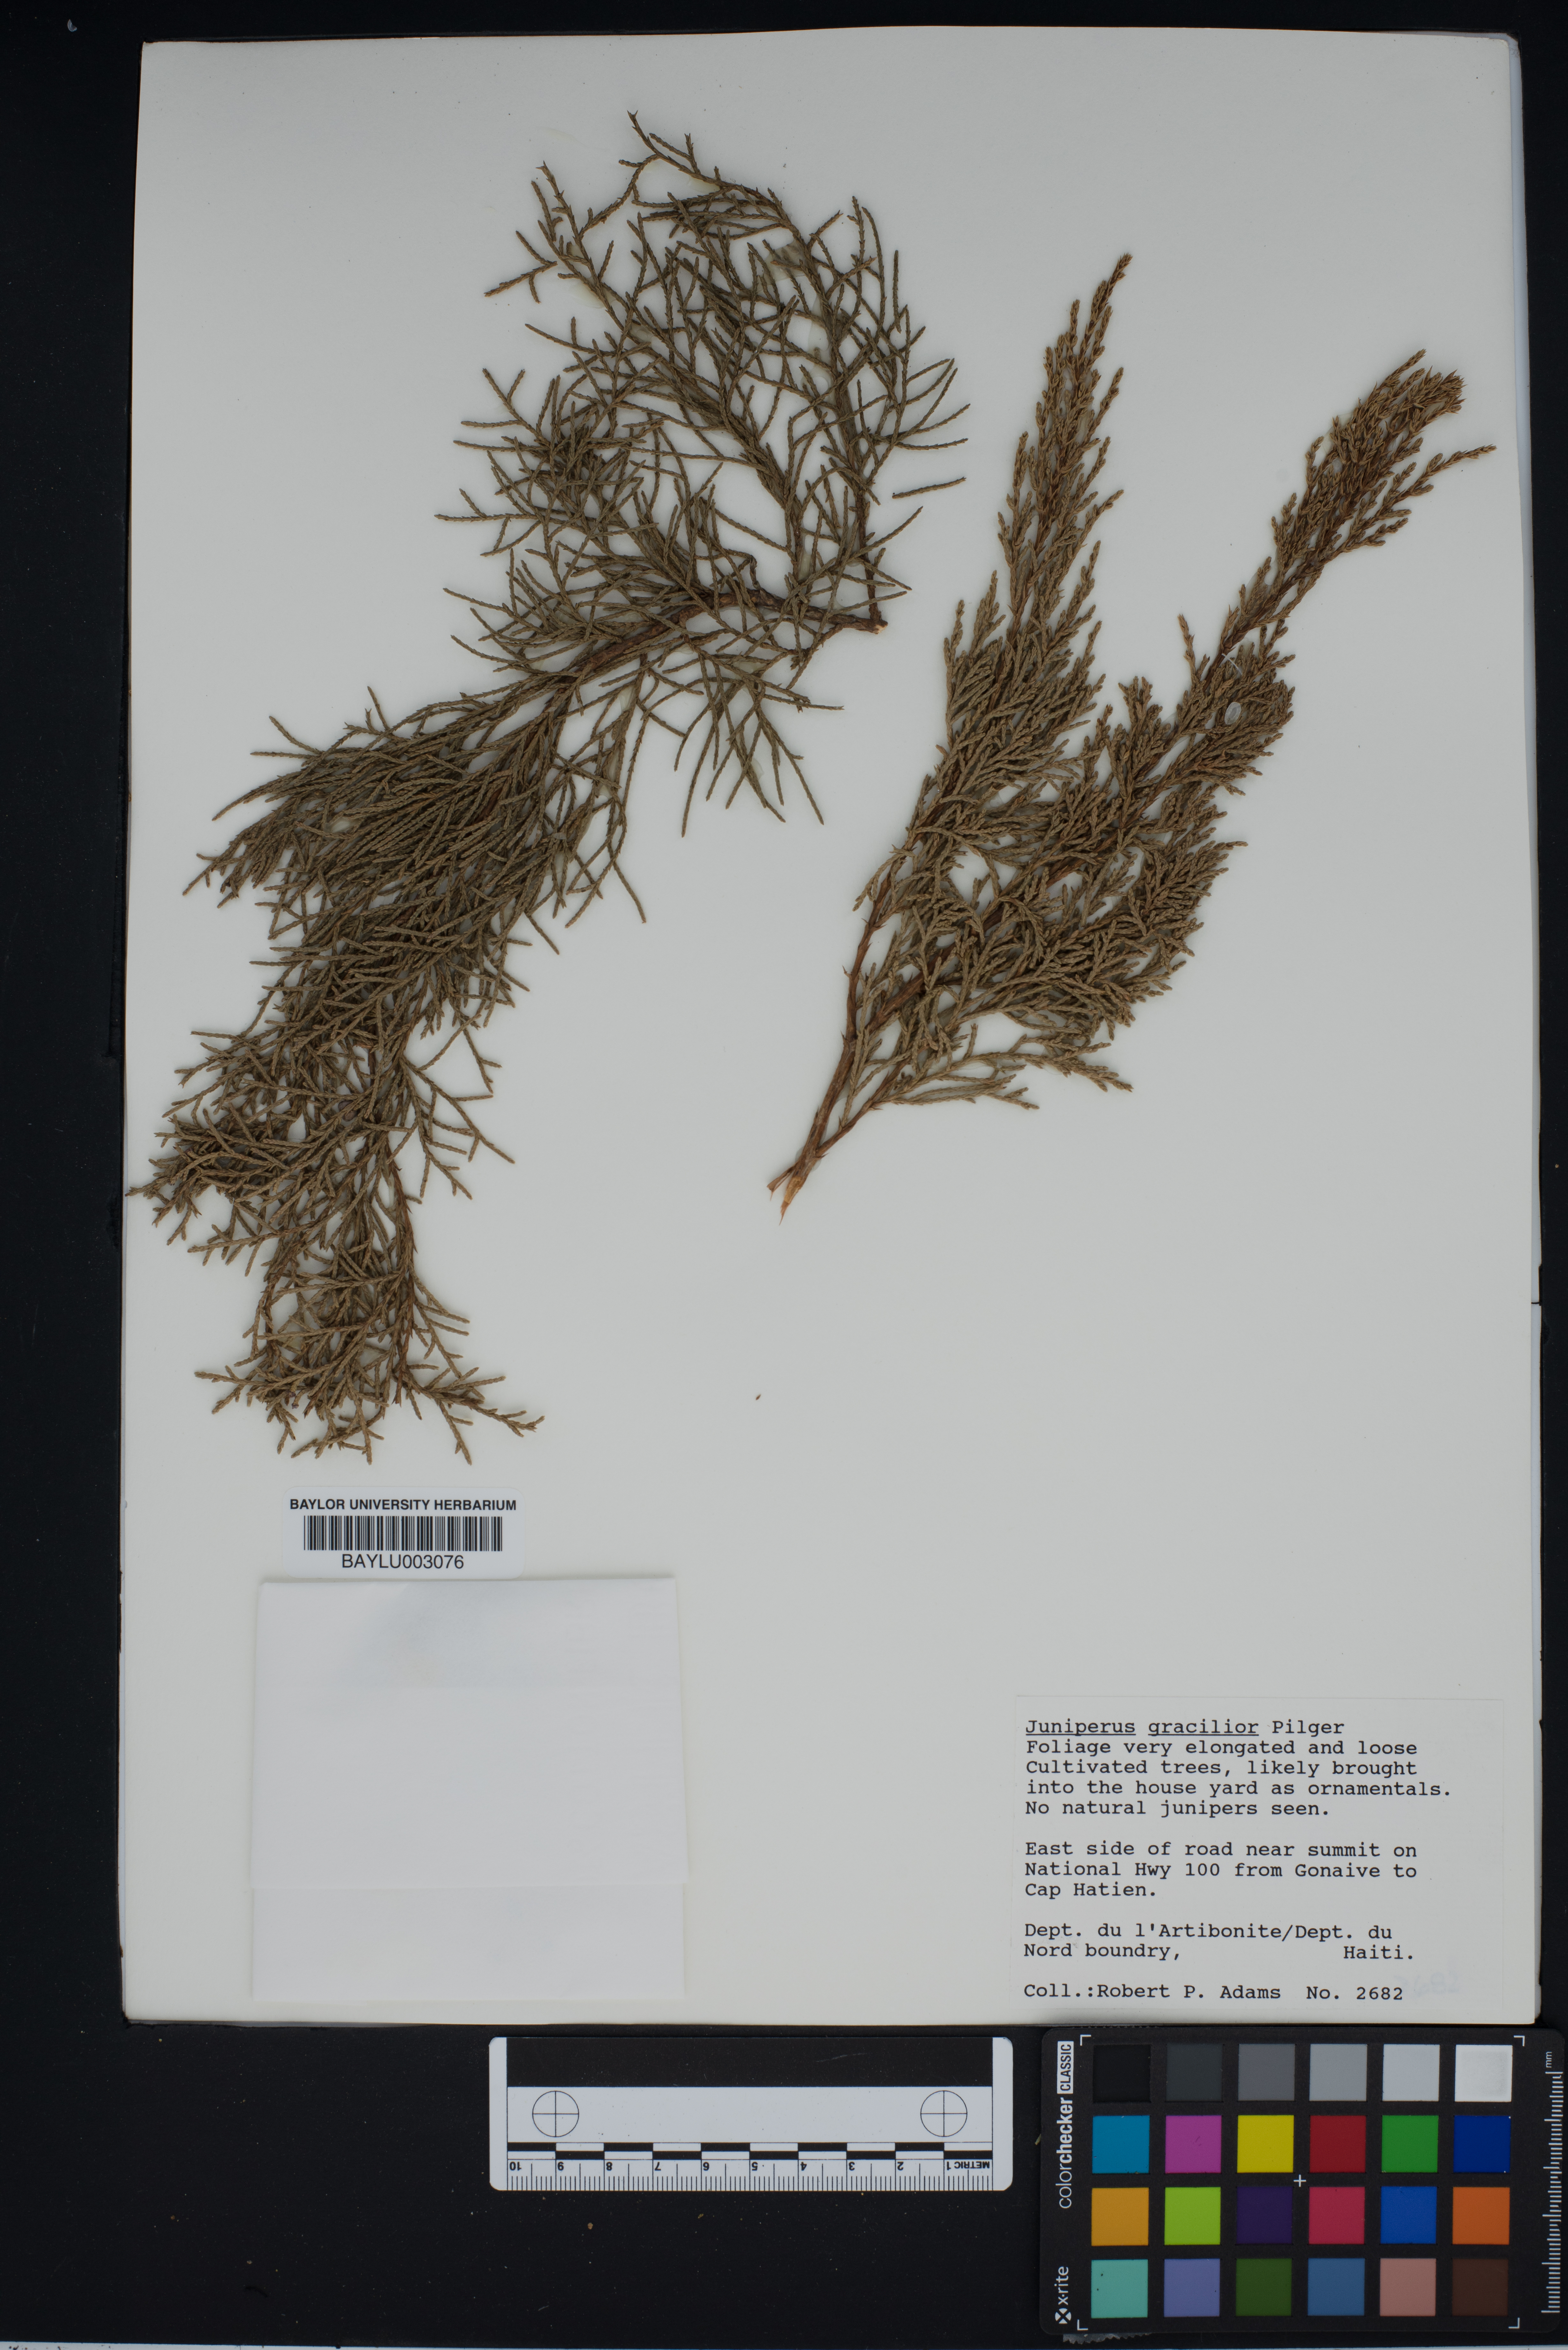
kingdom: Plantae
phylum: Tracheophyta
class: Pinopsida
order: Pinales
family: Cupressaceae
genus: Juniperus
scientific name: Juniperus gracilior
